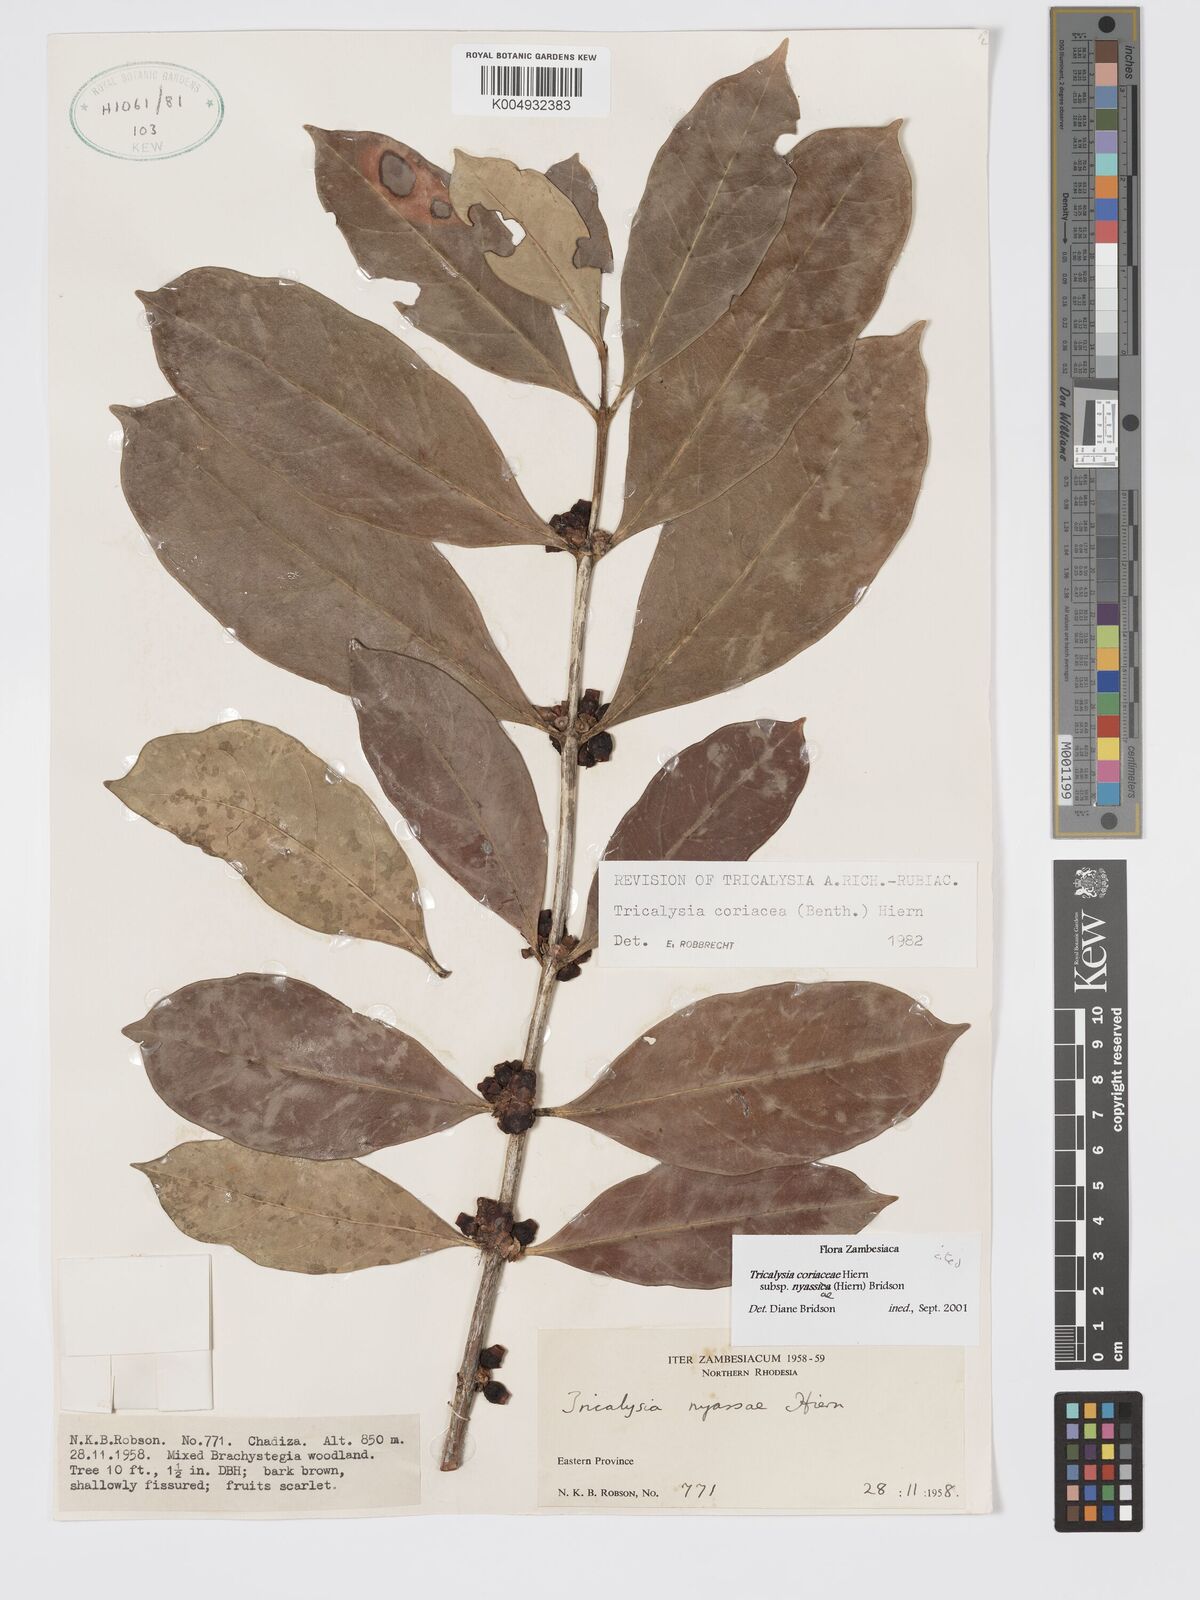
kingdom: Plantae
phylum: Tracheophyta
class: Magnoliopsida
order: Gentianales
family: Rubiaceae
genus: Tricalysia
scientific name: Tricalysia coriacea
